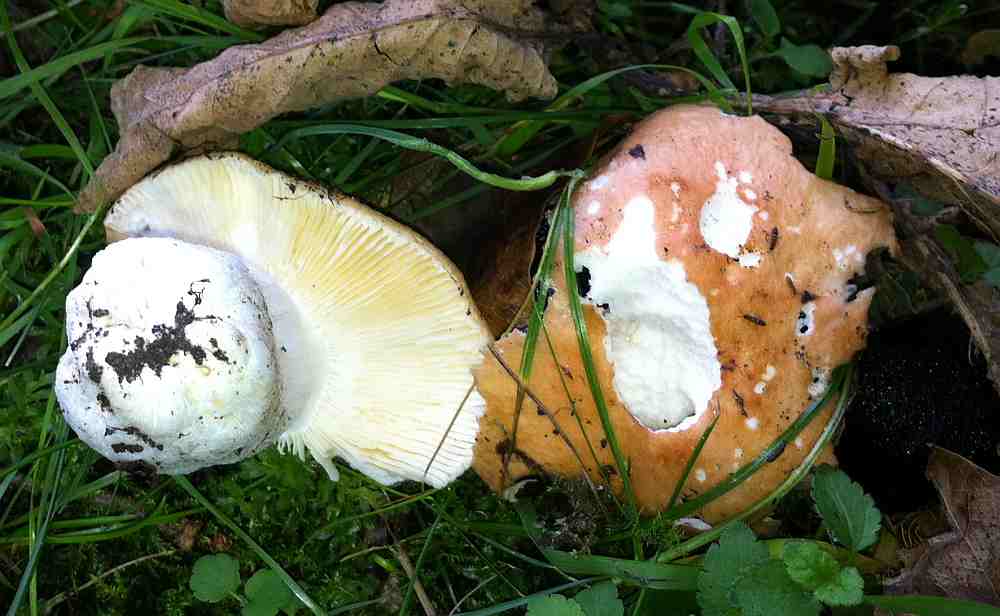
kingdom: Fungi
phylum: Basidiomycota
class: Agaricomycetes
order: Russulales
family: Russulaceae
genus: Russula
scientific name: Russula risigallina
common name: abrikos-skørhat
